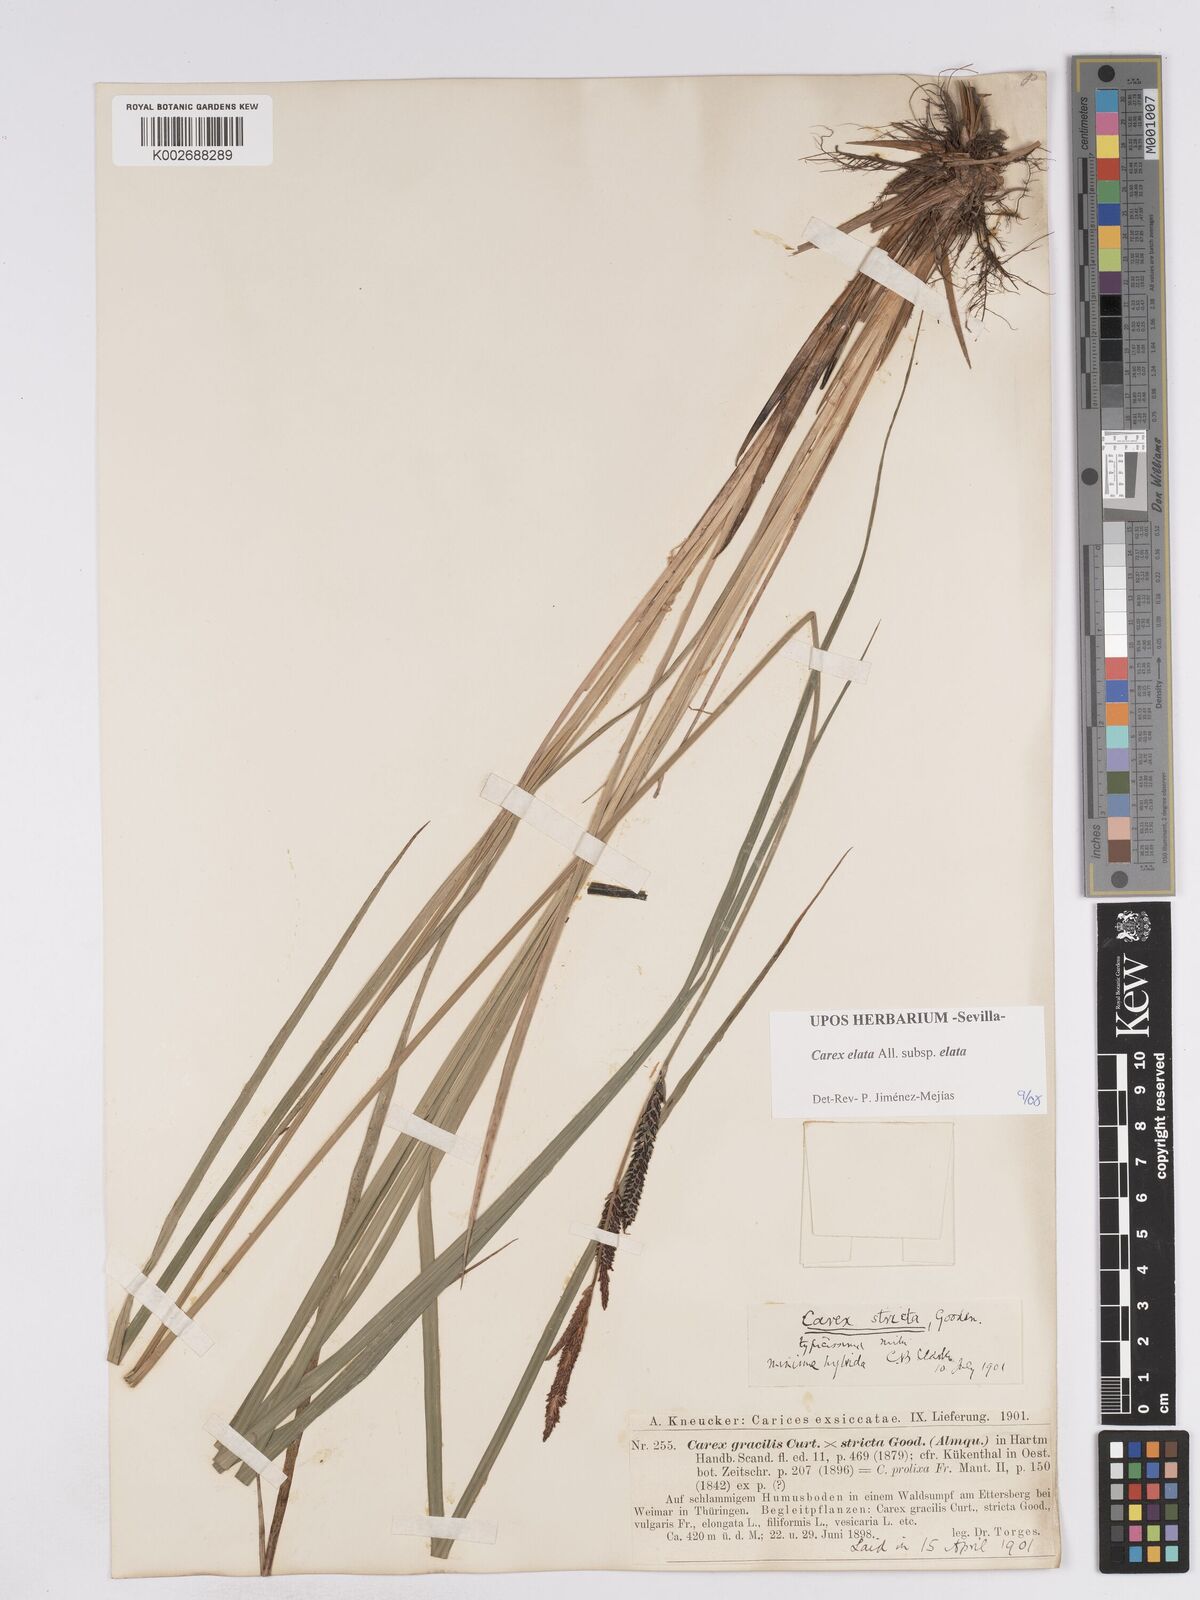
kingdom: Plantae
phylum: Tracheophyta
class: Liliopsida
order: Poales
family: Cyperaceae
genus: Carex
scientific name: Carex elata
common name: Tufted sedge
